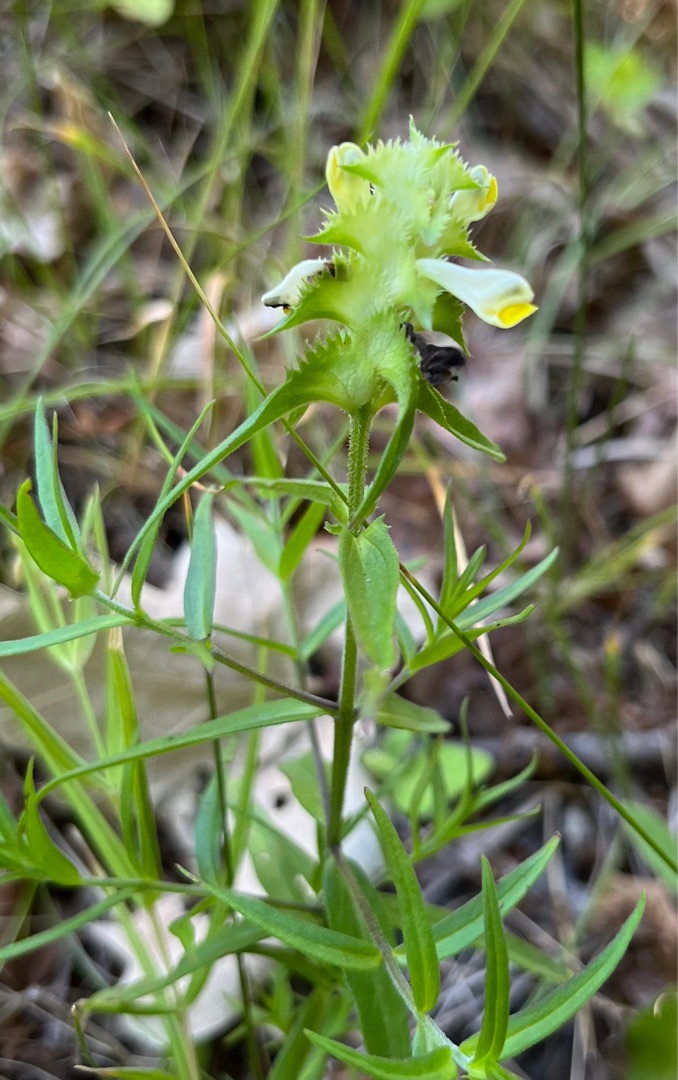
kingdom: Plantae
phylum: Tracheophyta
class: Magnoliopsida
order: Lamiales
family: Orobanchaceae
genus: Melampyrum
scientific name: Melampyrum cristatum
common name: Kantet kohvede
